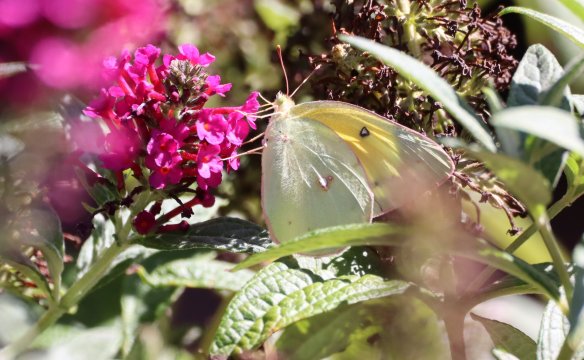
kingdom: Animalia
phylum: Arthropoda
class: Insecta
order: Lepidoptera
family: Pieridae
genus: Colias
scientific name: Colias eurytheme
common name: Orange Sulphur
